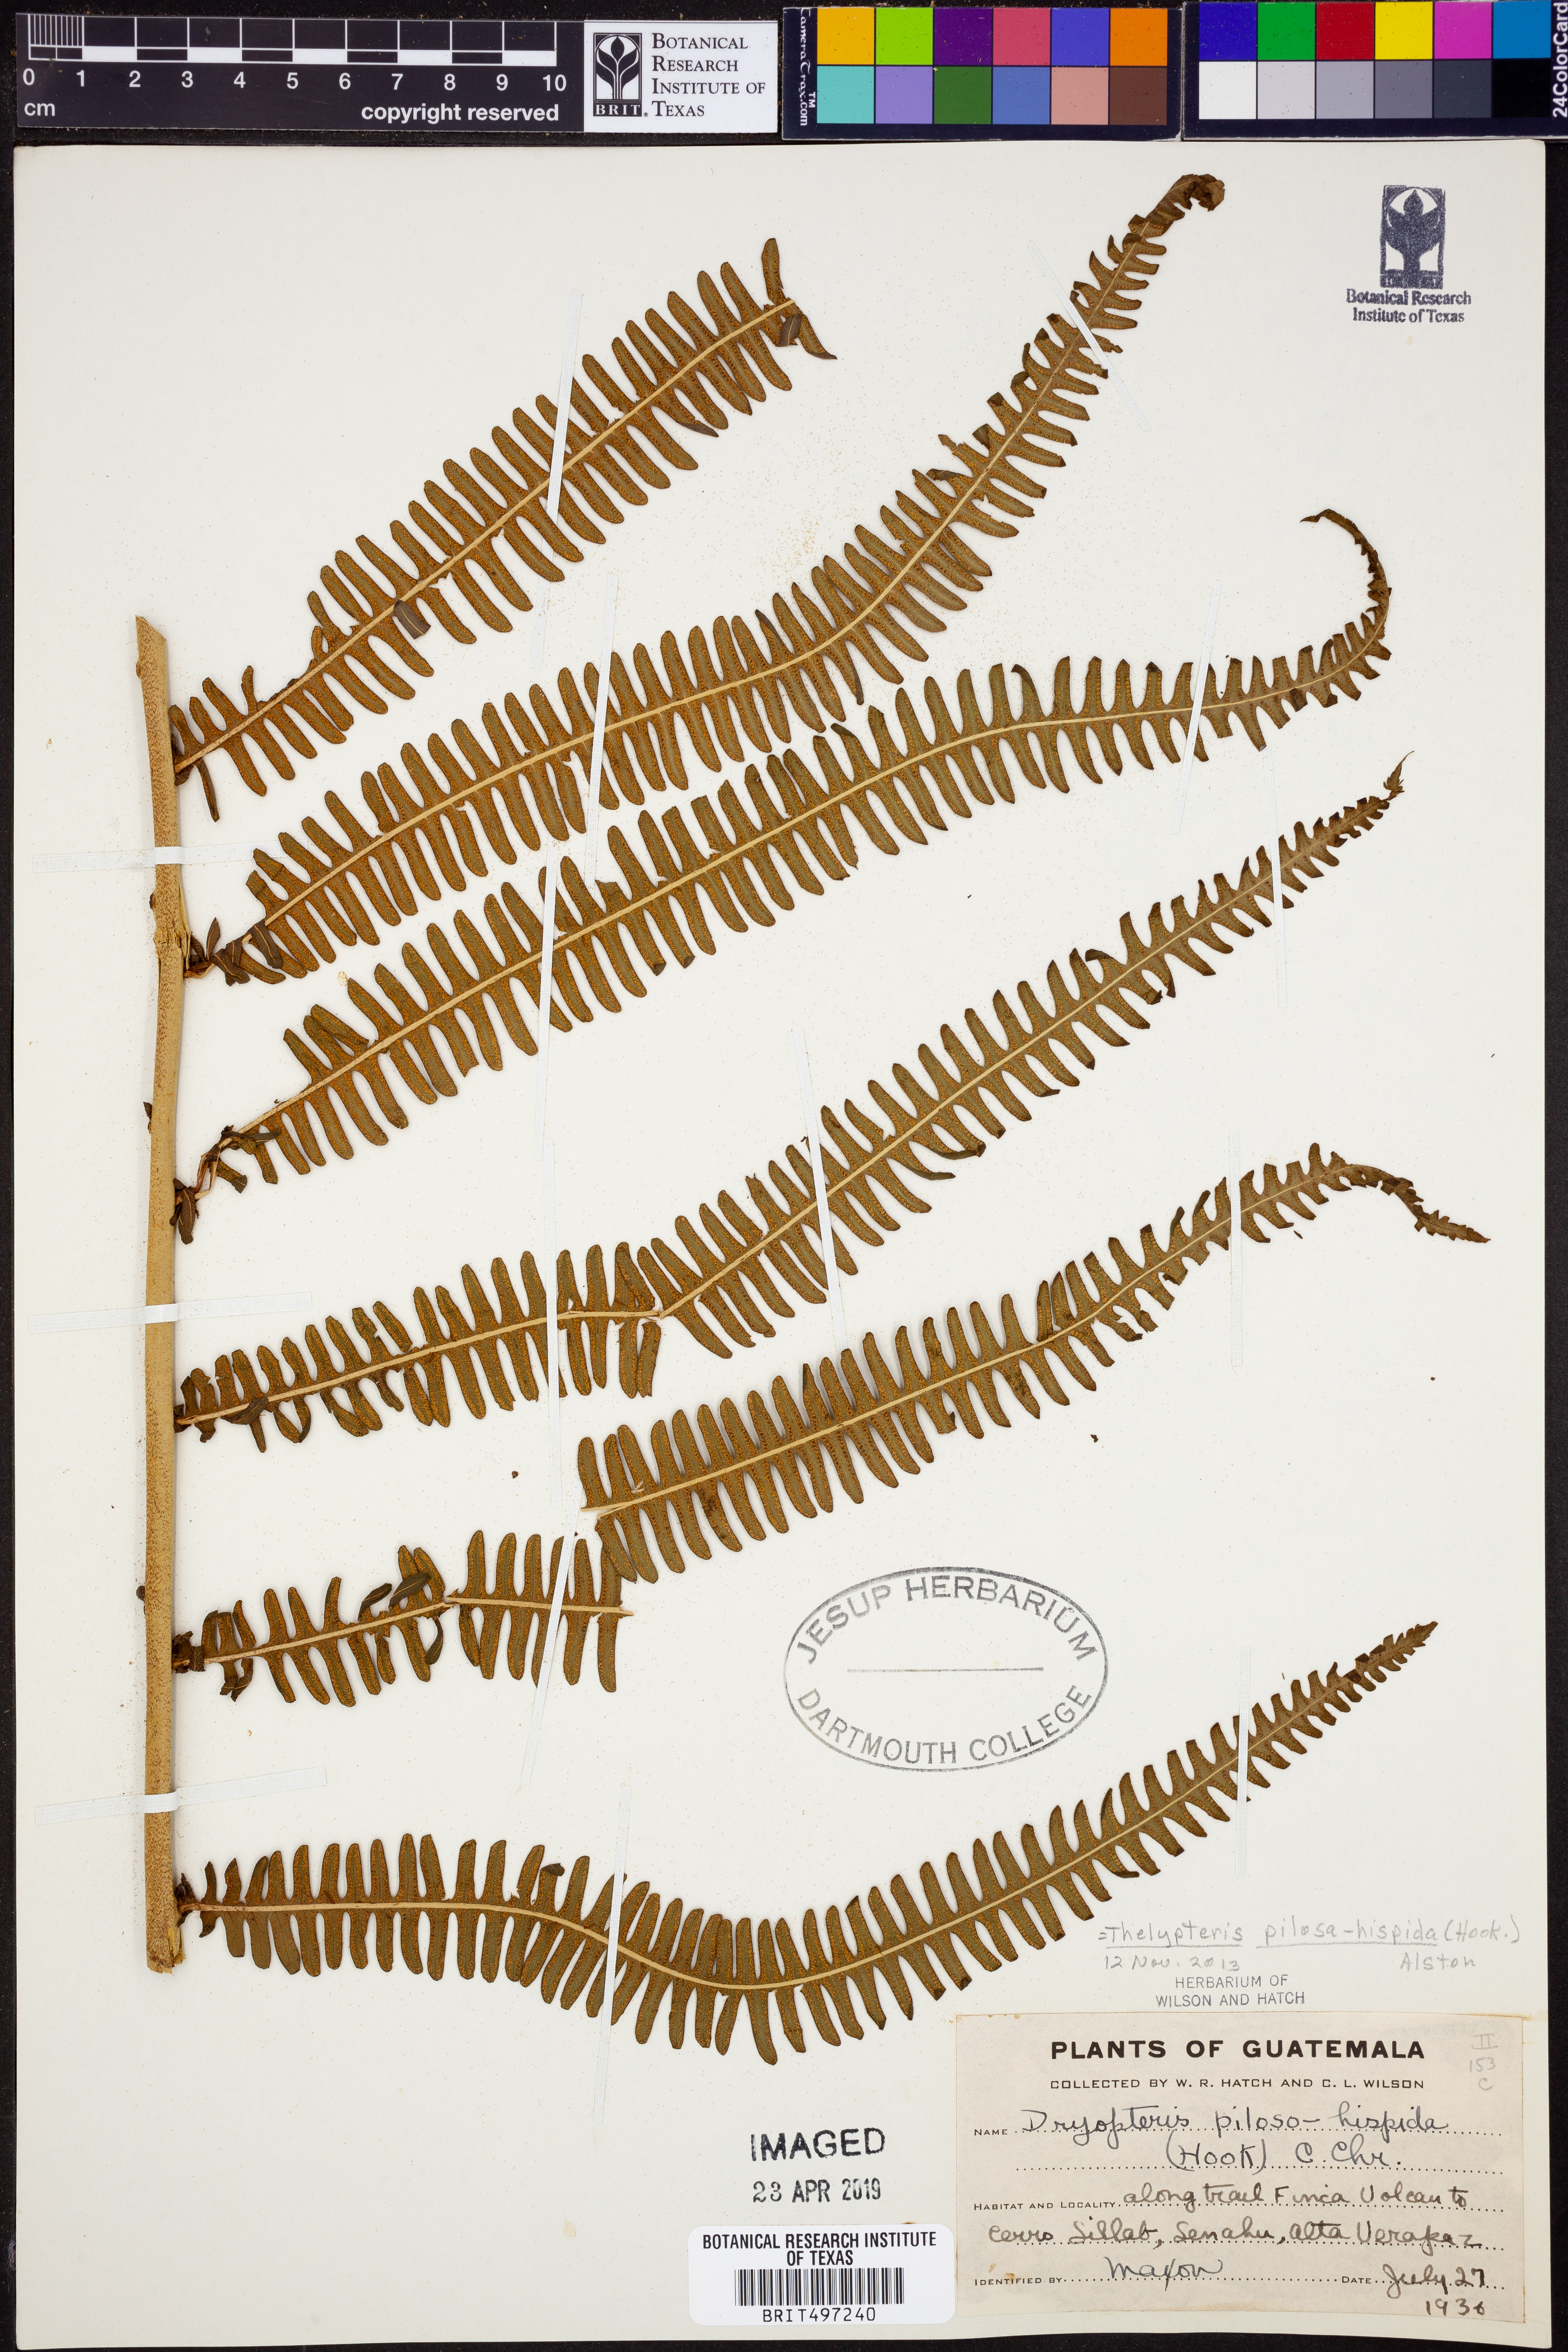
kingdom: Plantae
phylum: Tracheophyta
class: Polypodiopsida
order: Polypodiales
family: Thelypteridaceae
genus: Amauropelta
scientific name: Amauropelta pilosohispida
